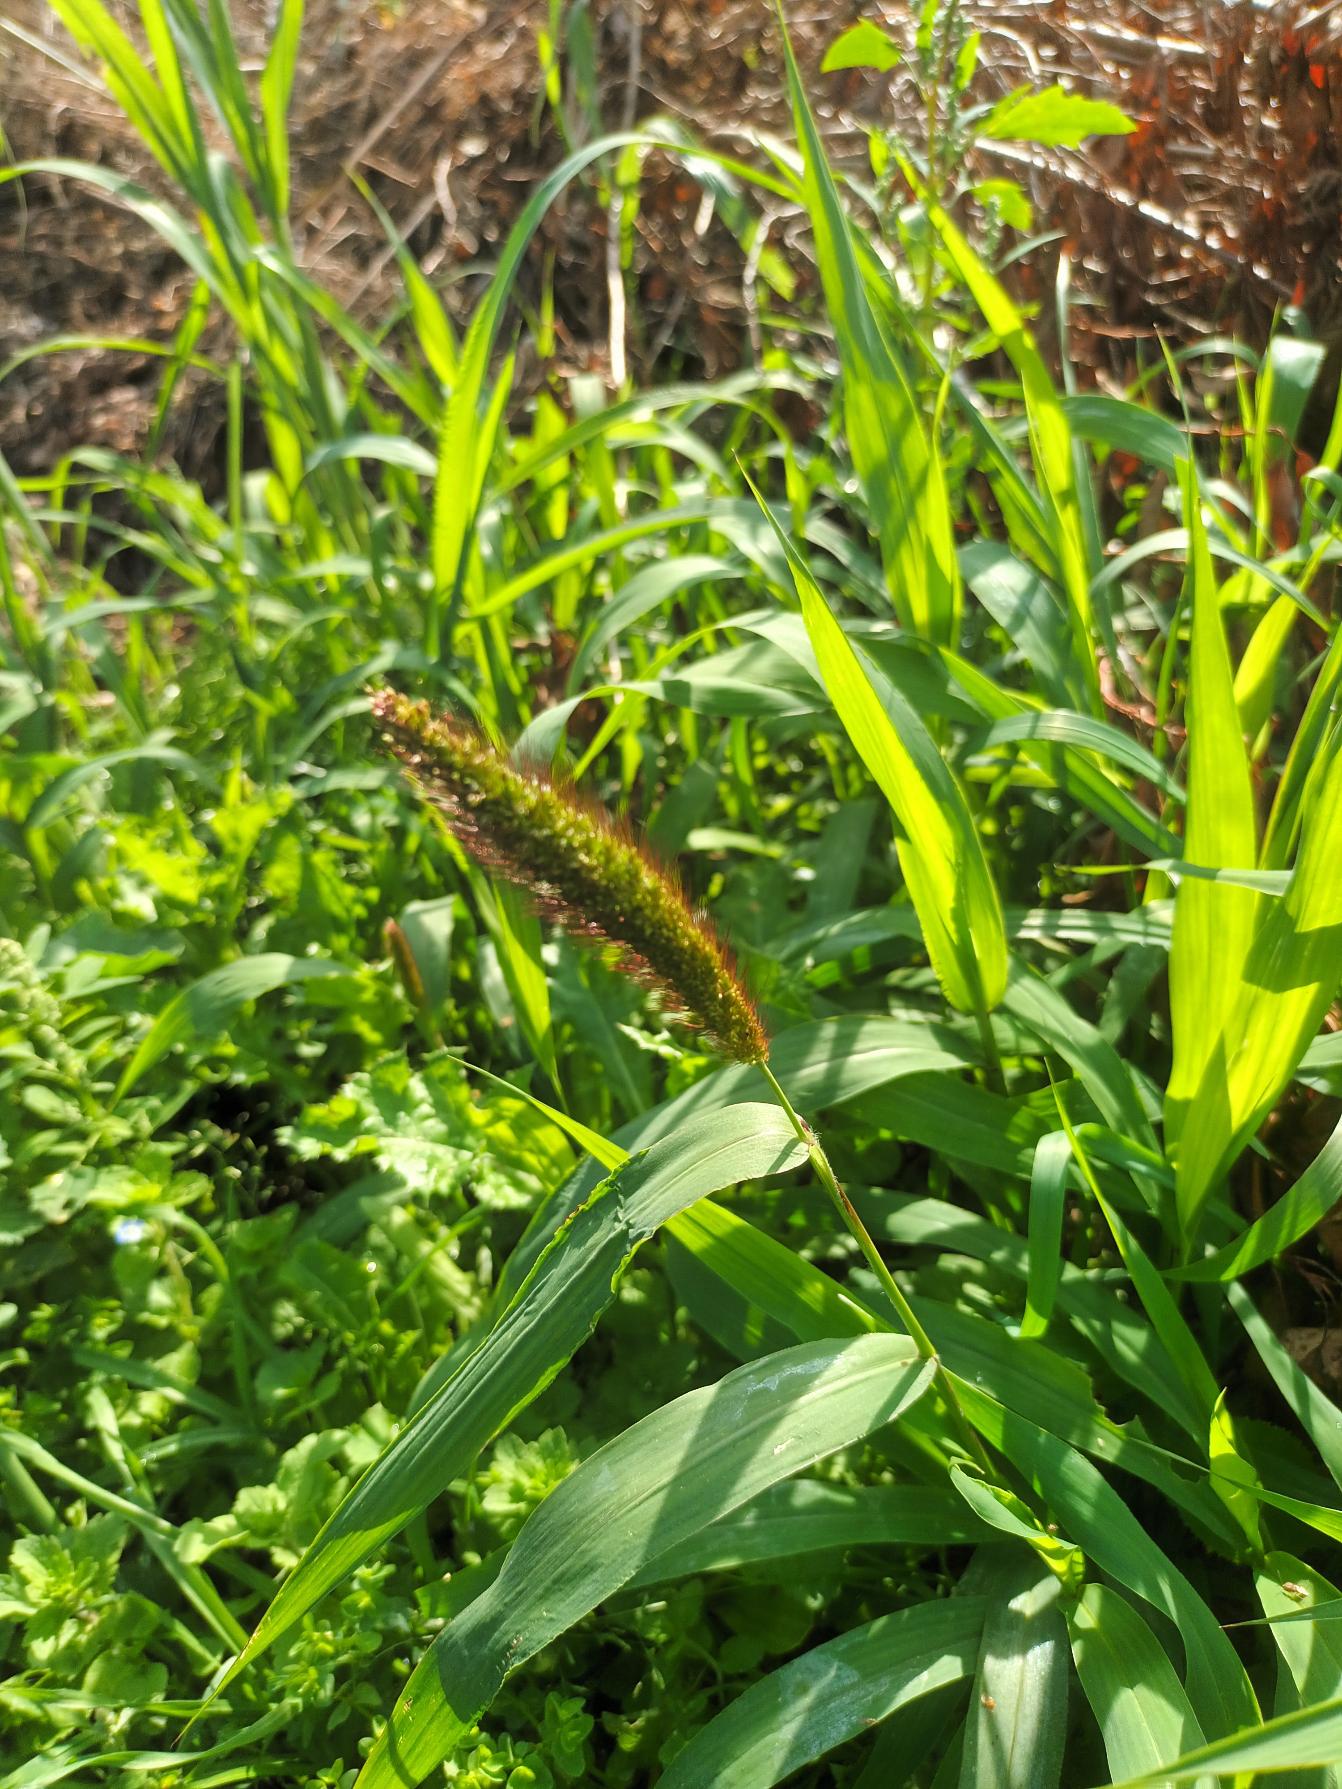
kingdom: Plantae
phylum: Tracheophyta
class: Liliopsida
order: Poales
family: Poaceae
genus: Setaria
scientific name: Setaria italica
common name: Kolbehirse
